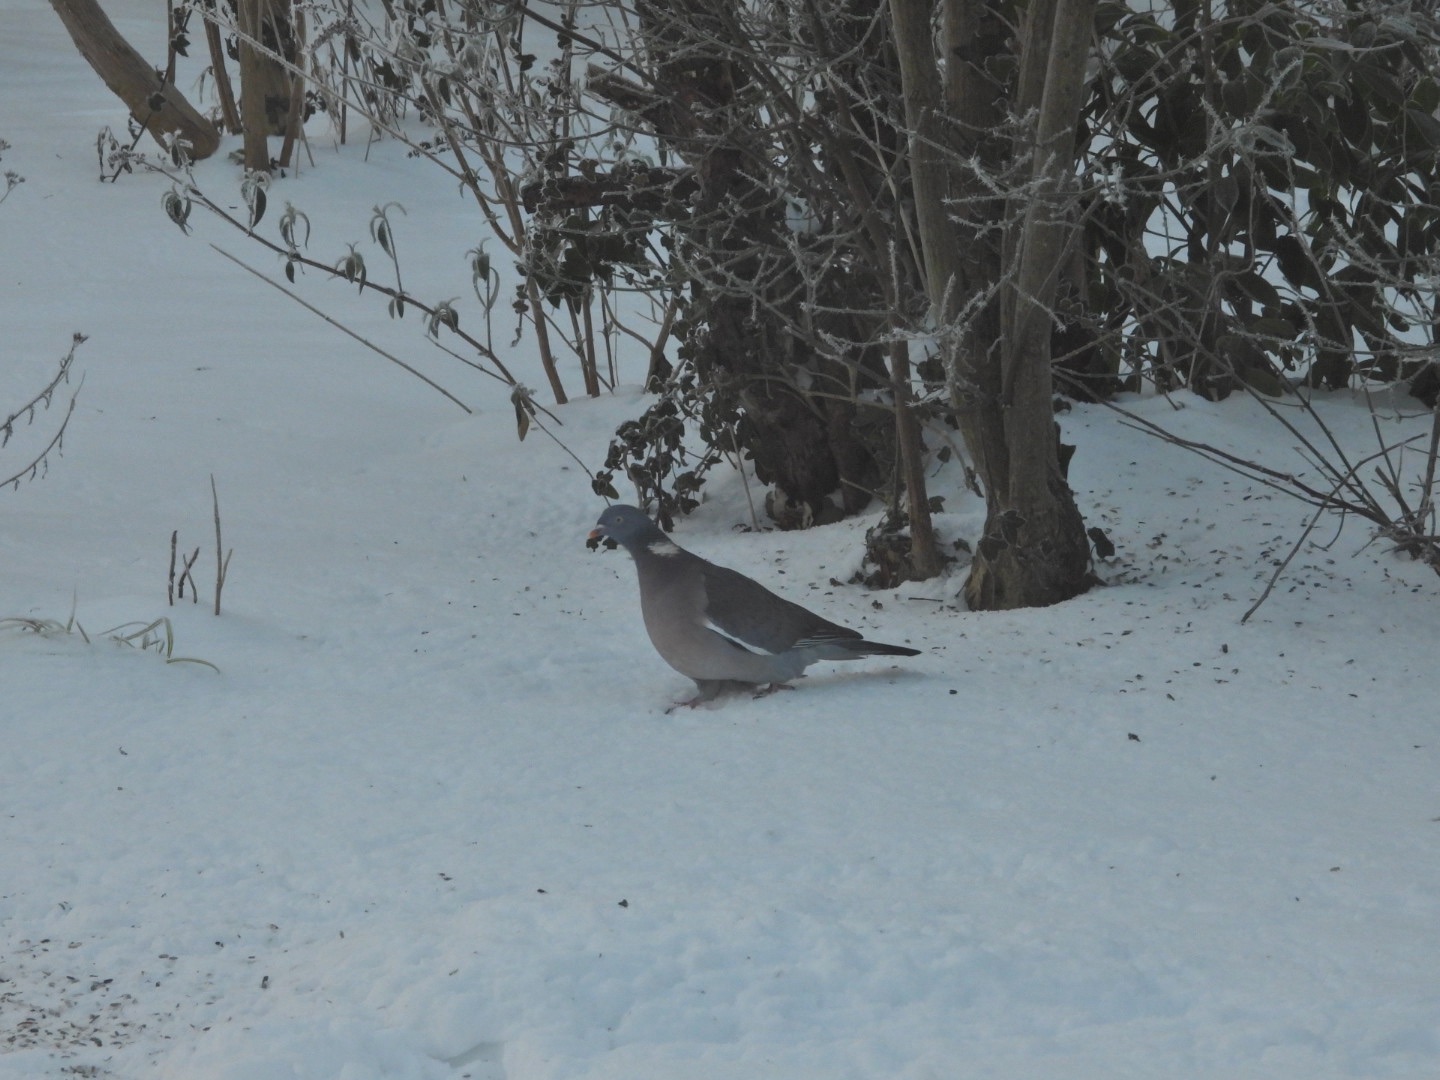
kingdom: Animalia
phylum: Chordata
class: Aves
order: Columbiformes
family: Columbidae
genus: Columba
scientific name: Columba palumbus
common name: Ringdue
